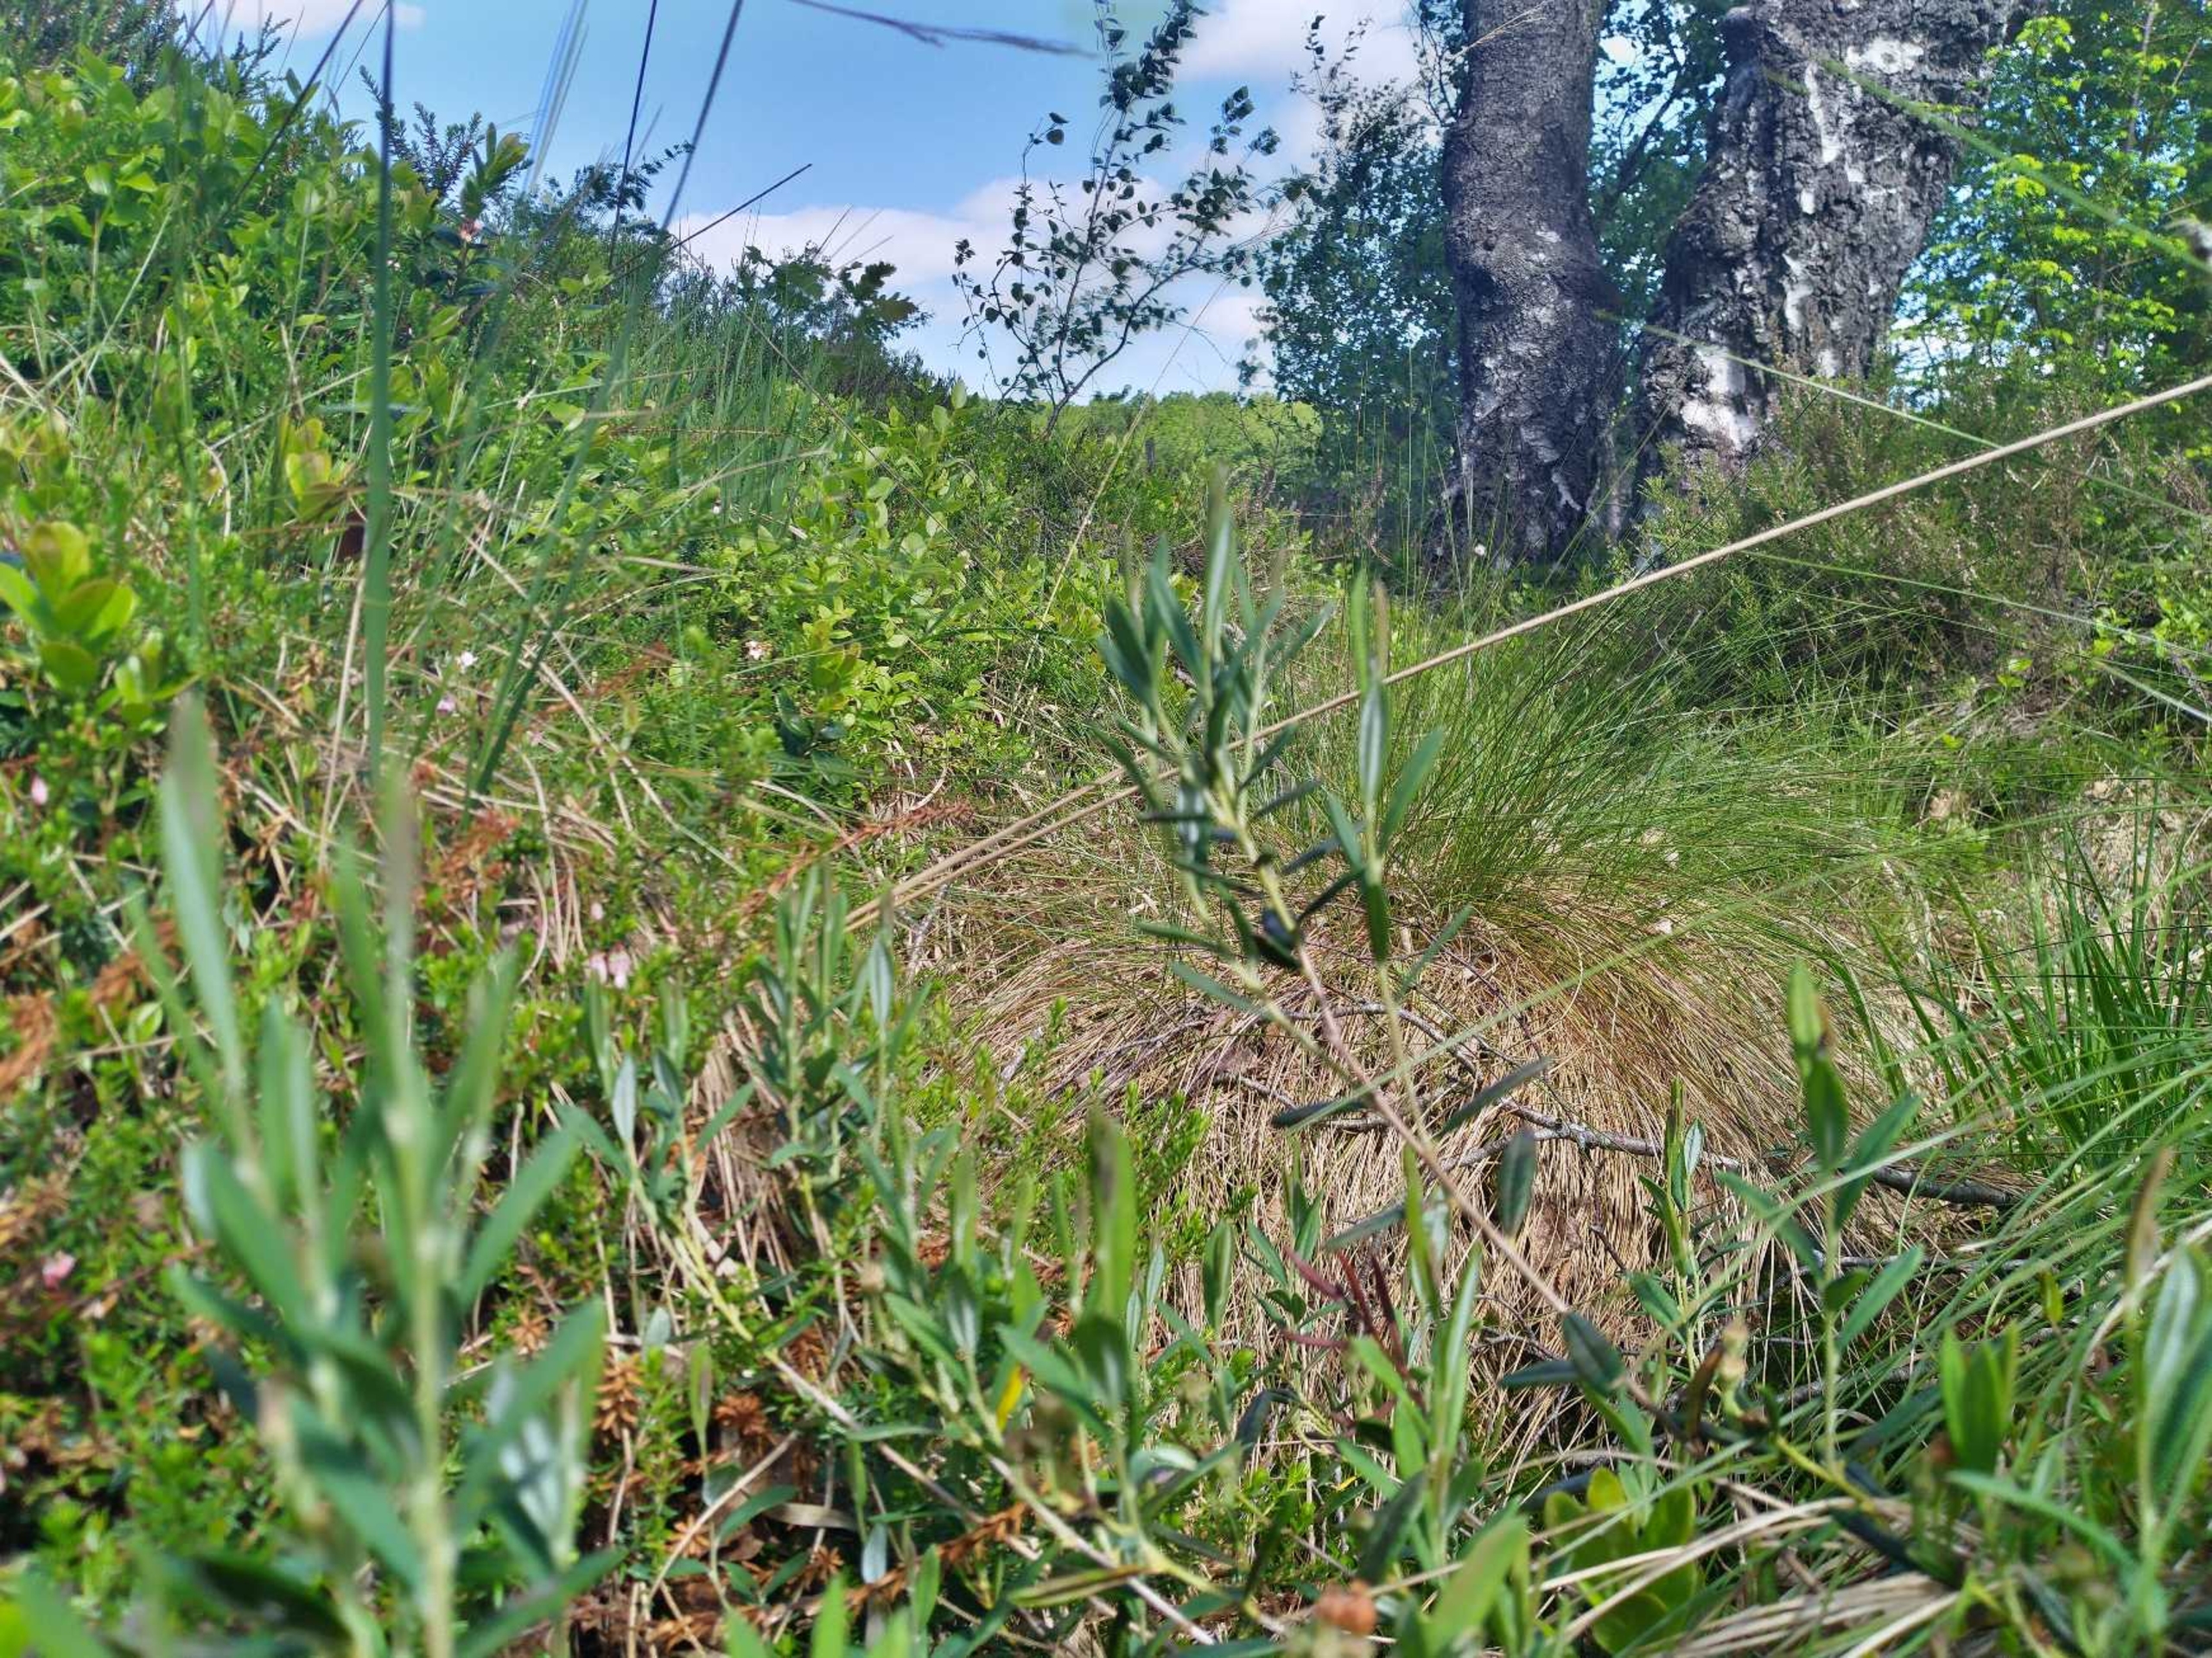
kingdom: Plantae
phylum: Tracheophyta
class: Magnoliopsida
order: Ericales
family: Ericaceae
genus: Andromeda
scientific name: Andromeda polifolia
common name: Rosmarinlyng
